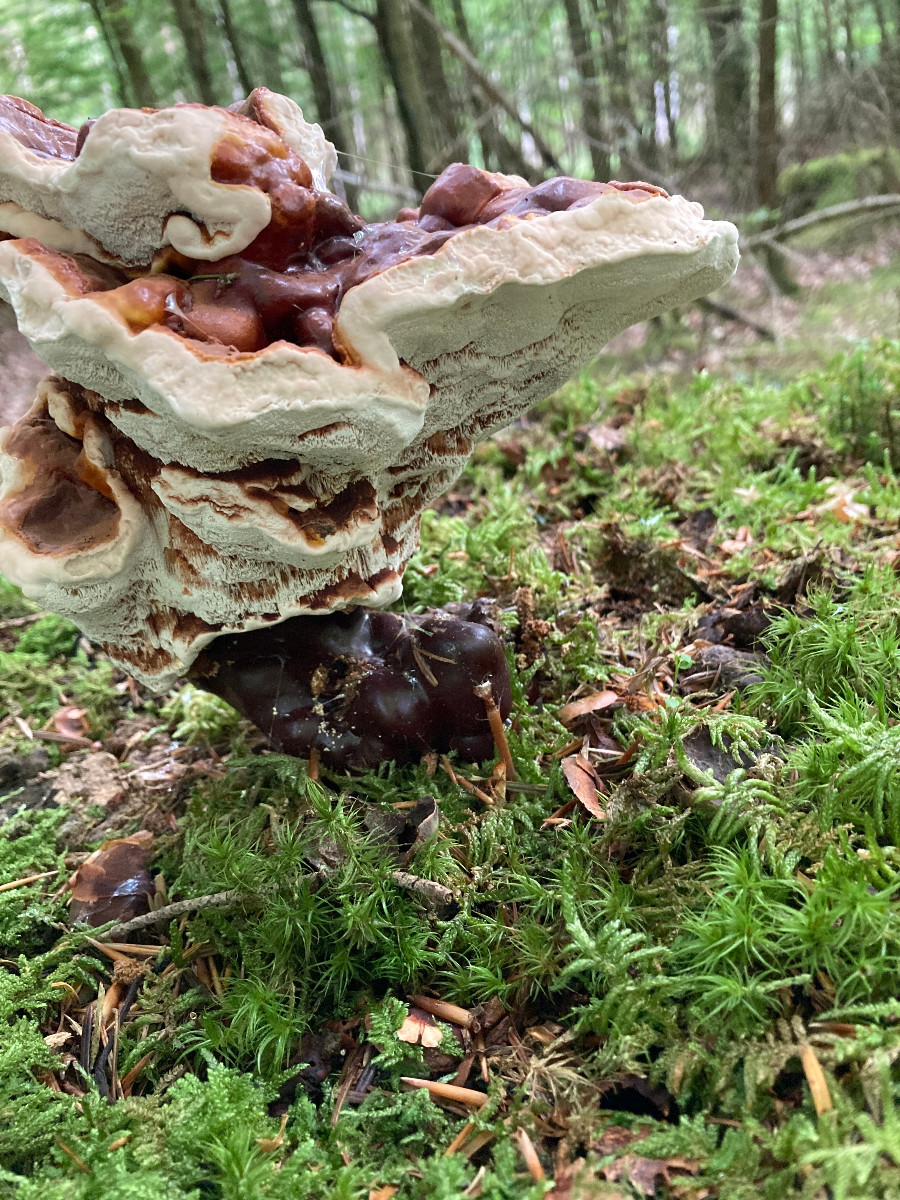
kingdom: Fungi
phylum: Basidiomycota
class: Agaricomycetes
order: Polyporales
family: Polyporaceae
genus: Ganoderma
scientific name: Ganoderma lucidum
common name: skinnende lakporesvamp
